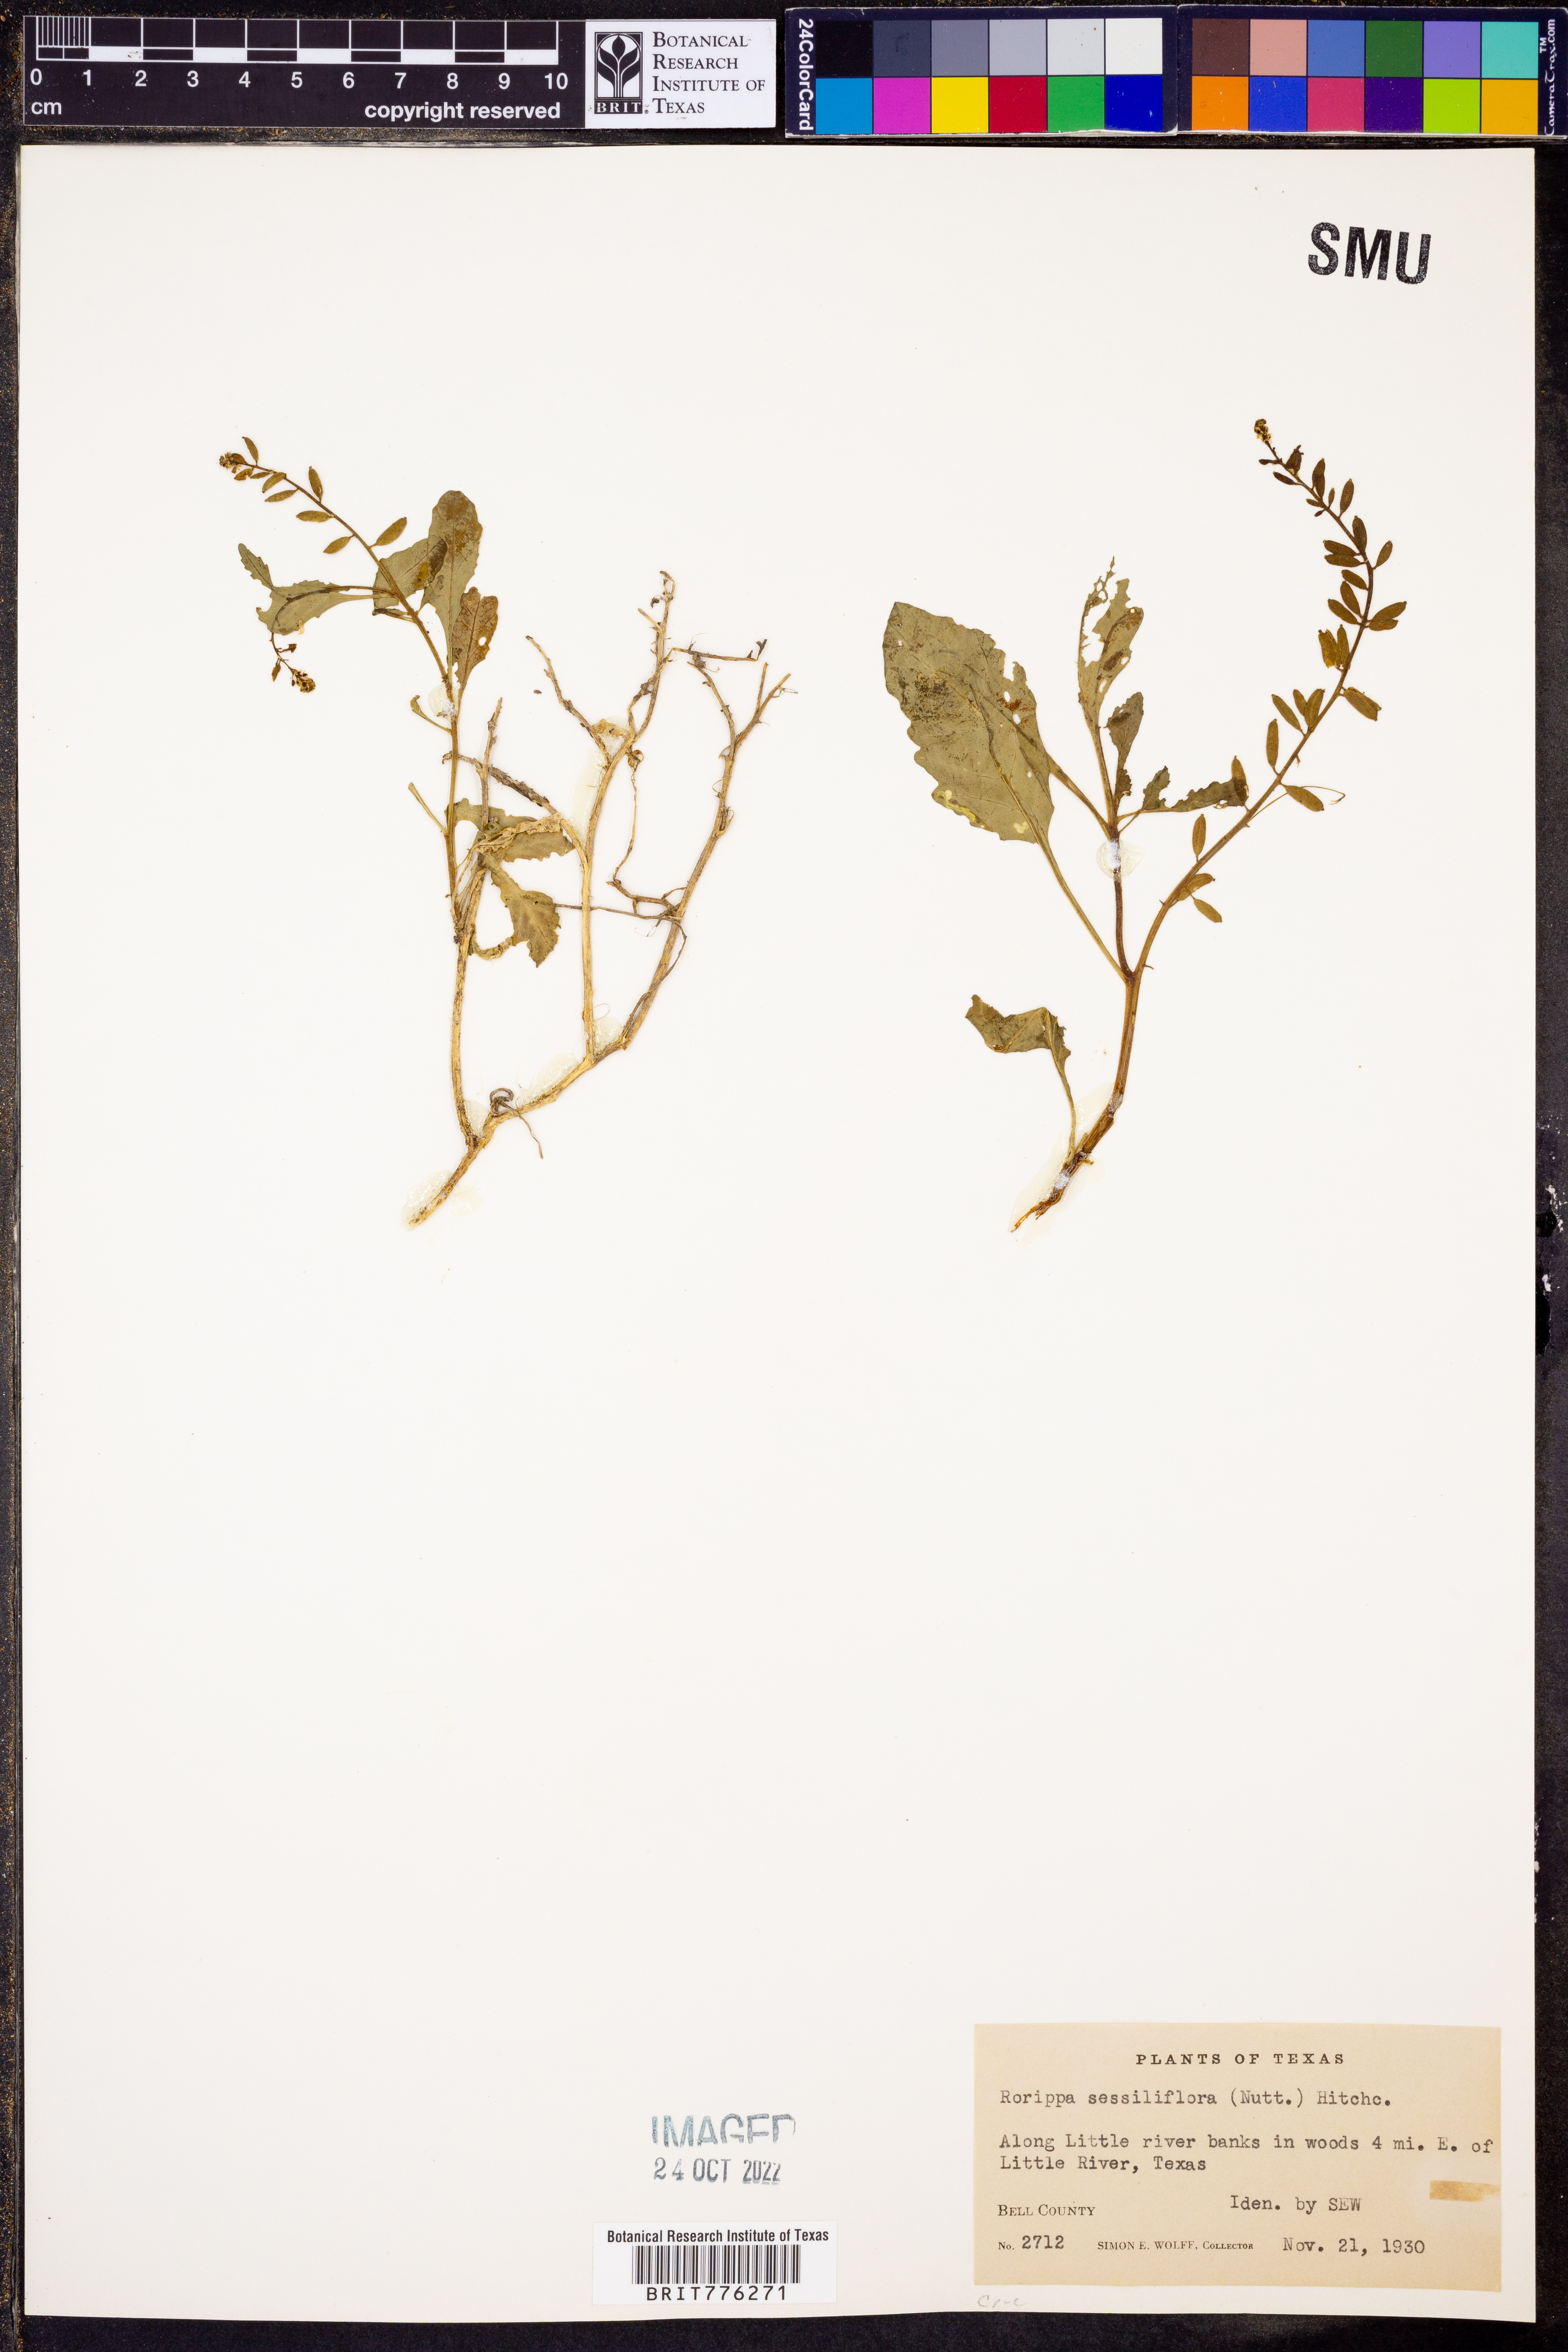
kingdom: Plantae
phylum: Tracheophyta
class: Magnoliopsida
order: Brassicales
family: Brassicaceae
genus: Rorippa
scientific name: Rorippa sessiliflora
